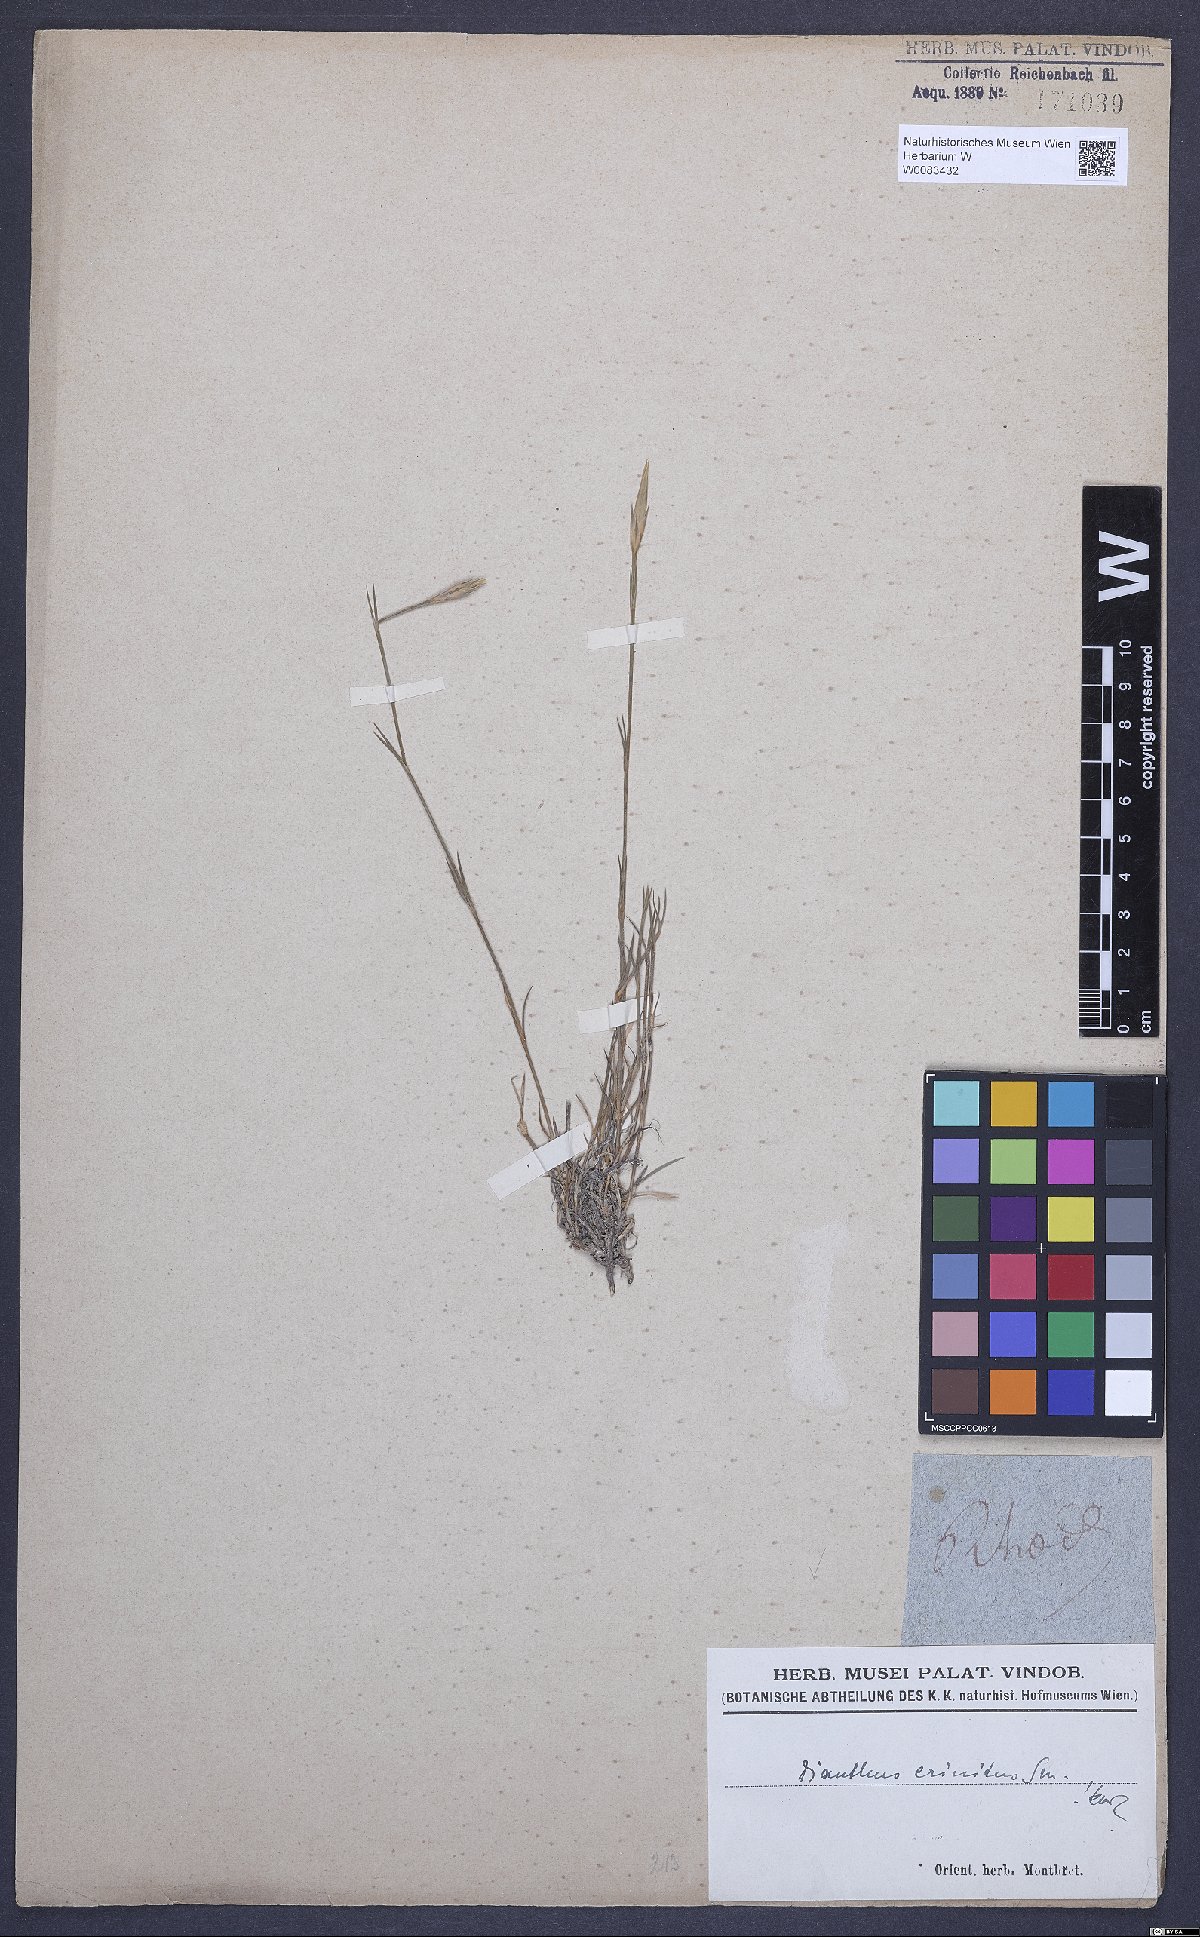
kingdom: Plantae
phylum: Tracheophyta
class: Magnoliopsida
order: Caryophyllales
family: Caryophyllaceae
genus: Dianthus
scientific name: Dianthus crinitus
